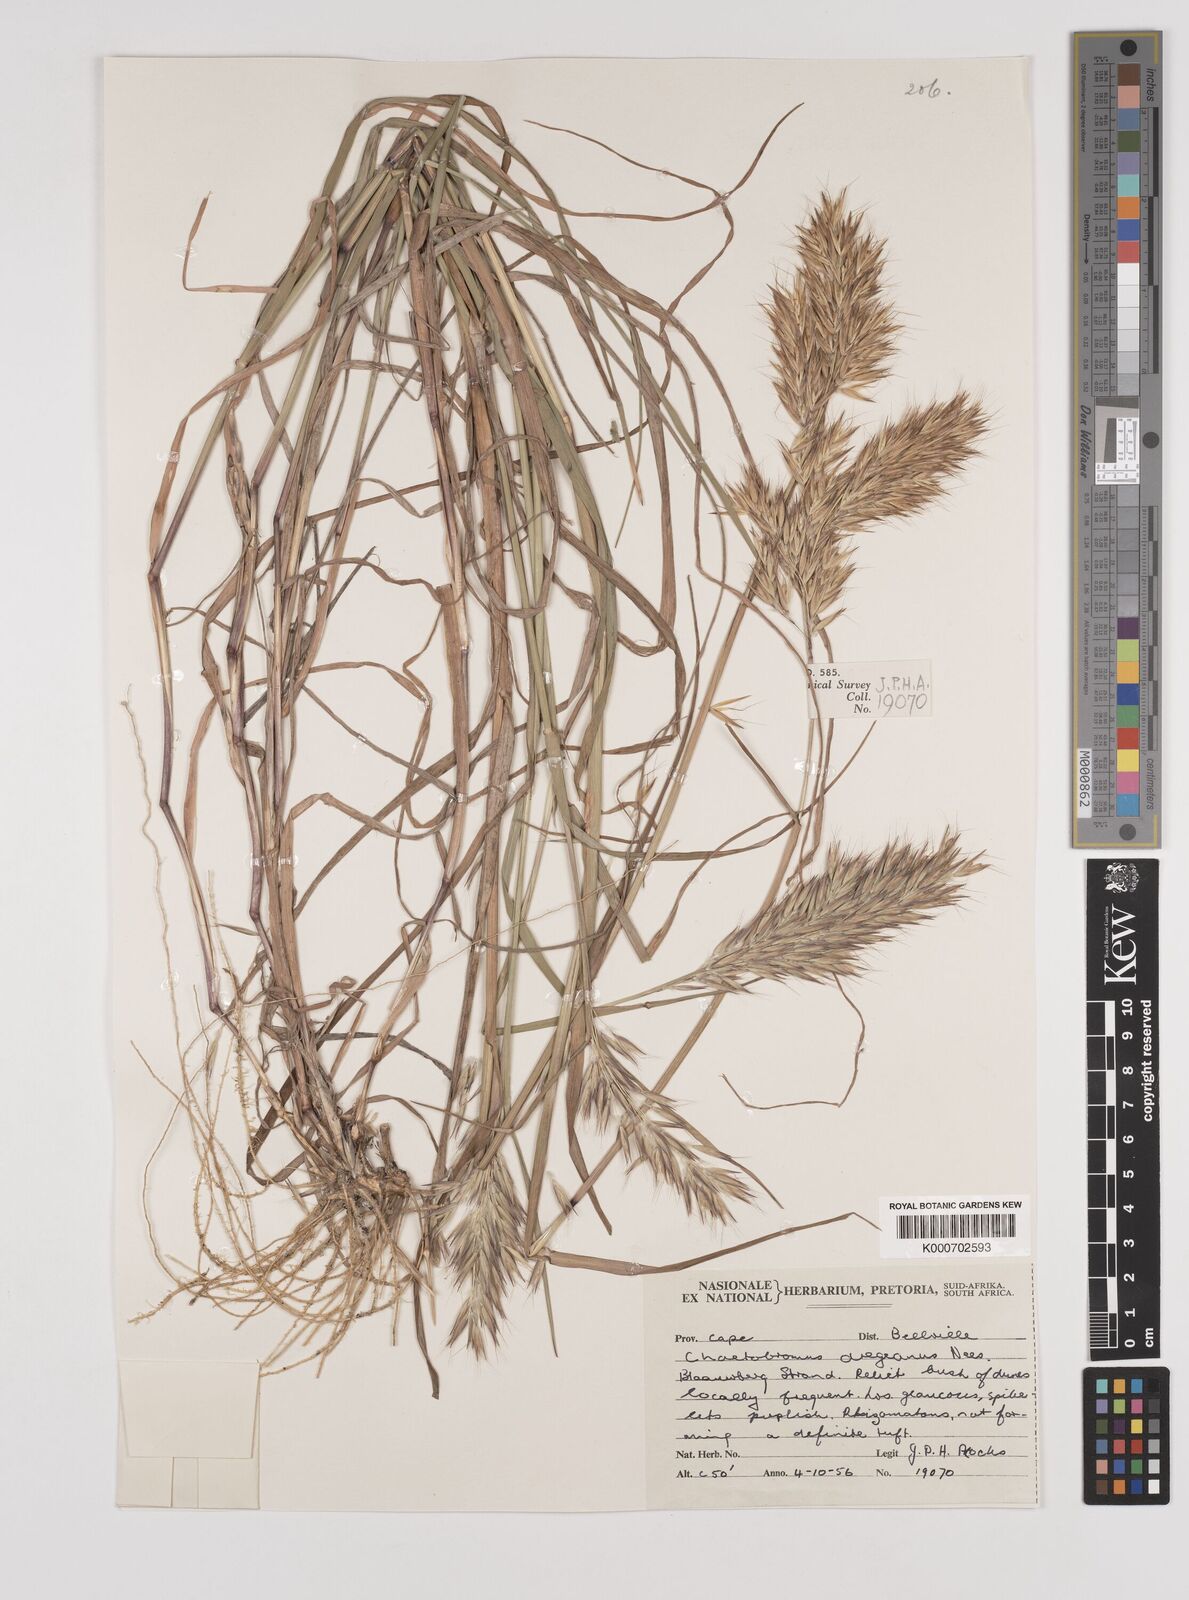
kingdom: Plantae
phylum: Tracheophyta
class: Liliopsida
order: Poales
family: Poaceae
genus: Chaetobromus
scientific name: Chaetobromus involucratus
